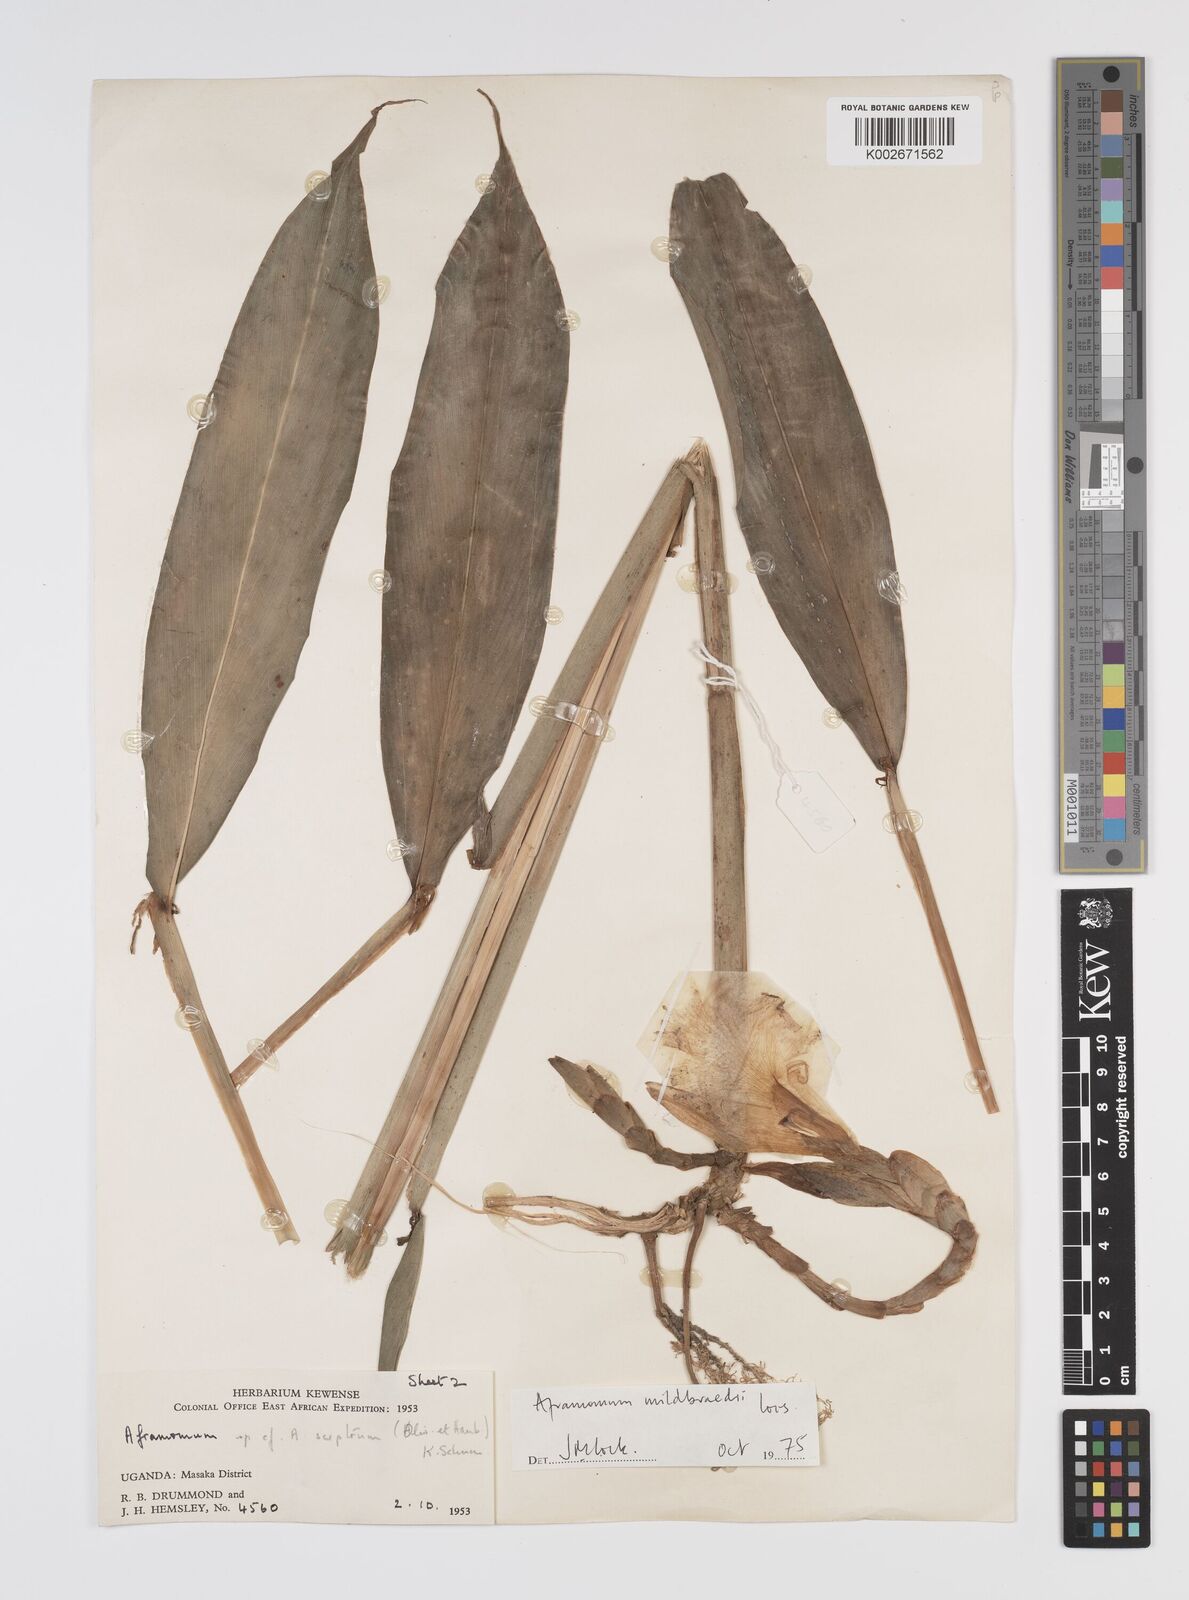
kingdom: Plantae
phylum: Tracheophyta
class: Liliopsida
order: Zingiberales
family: Zingiberaceae
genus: Aframomum
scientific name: Aframomum mildbraedii
